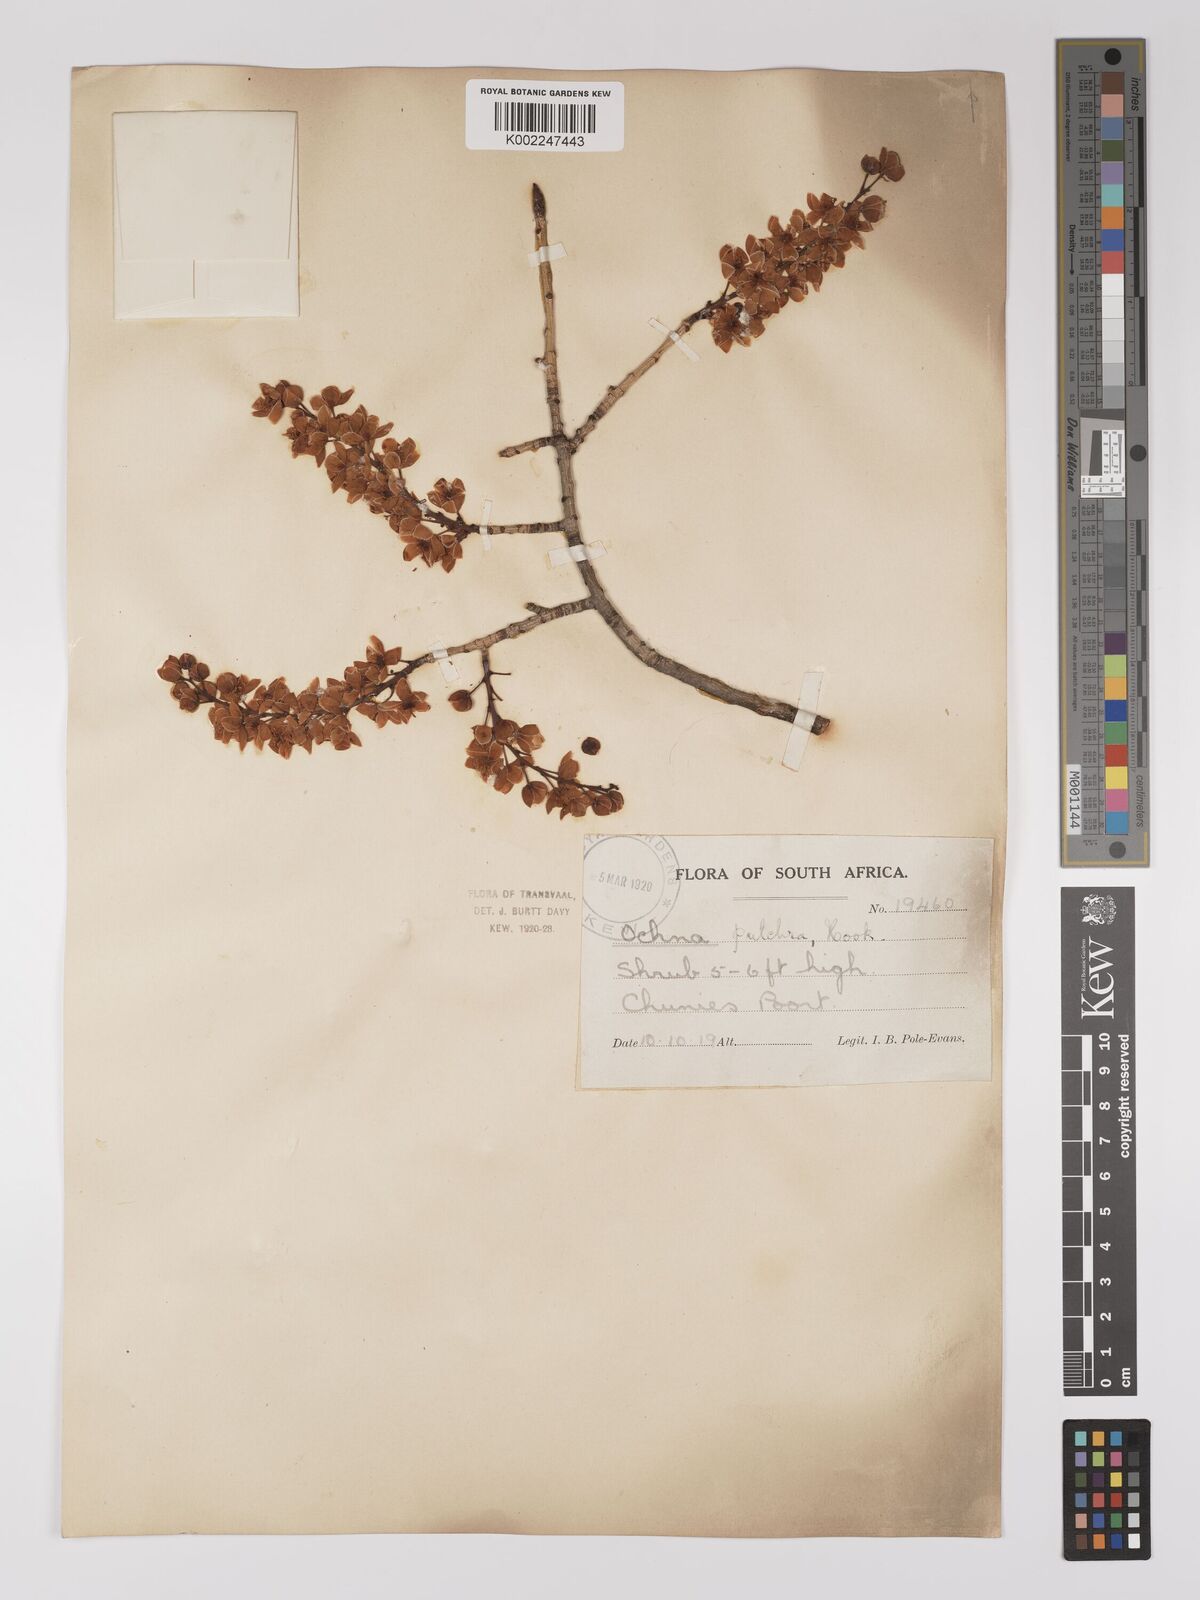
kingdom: Plantae
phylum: Tracheophyta
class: Magnoliopsida
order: Malpighiales
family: Ochnaceae
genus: Ochna
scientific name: Ochna pulchra
